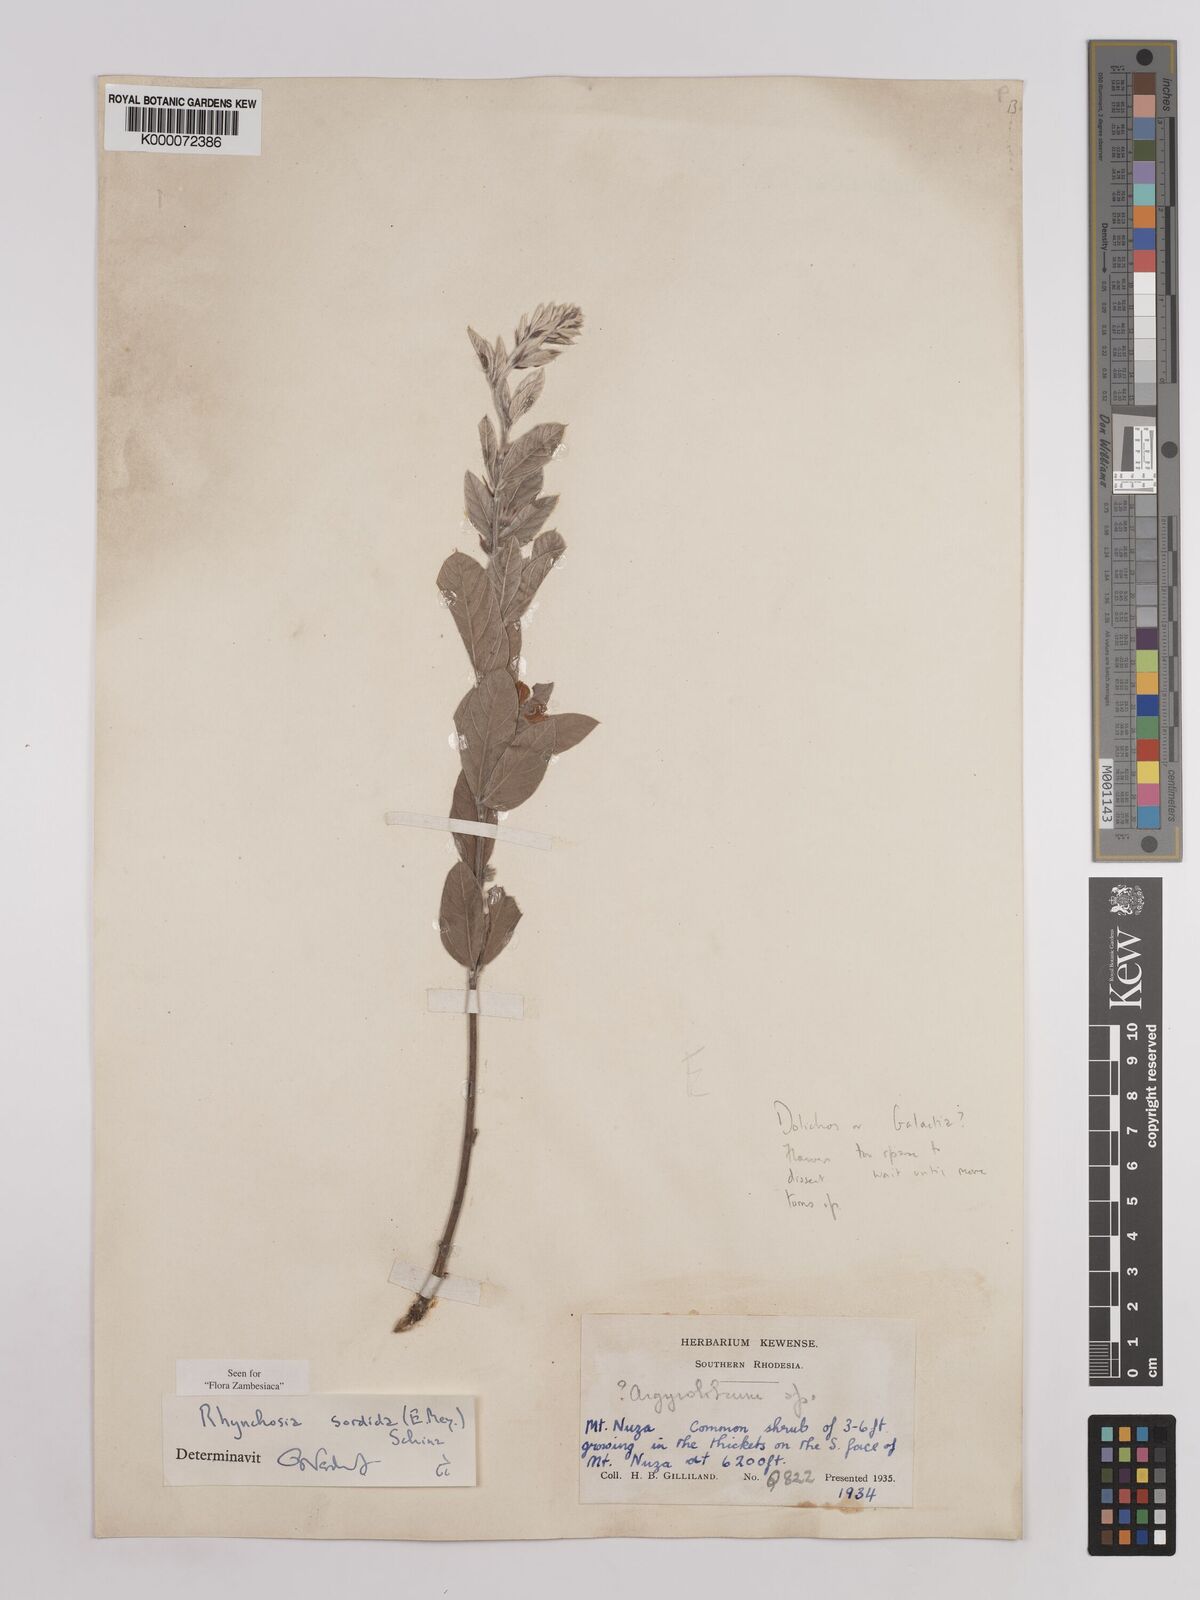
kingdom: Plantae
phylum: Tracheophyta
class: Magnoliopsida
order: Fabales
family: Fabaceae
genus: Rhynchosia
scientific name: Rhynchosia sordida
